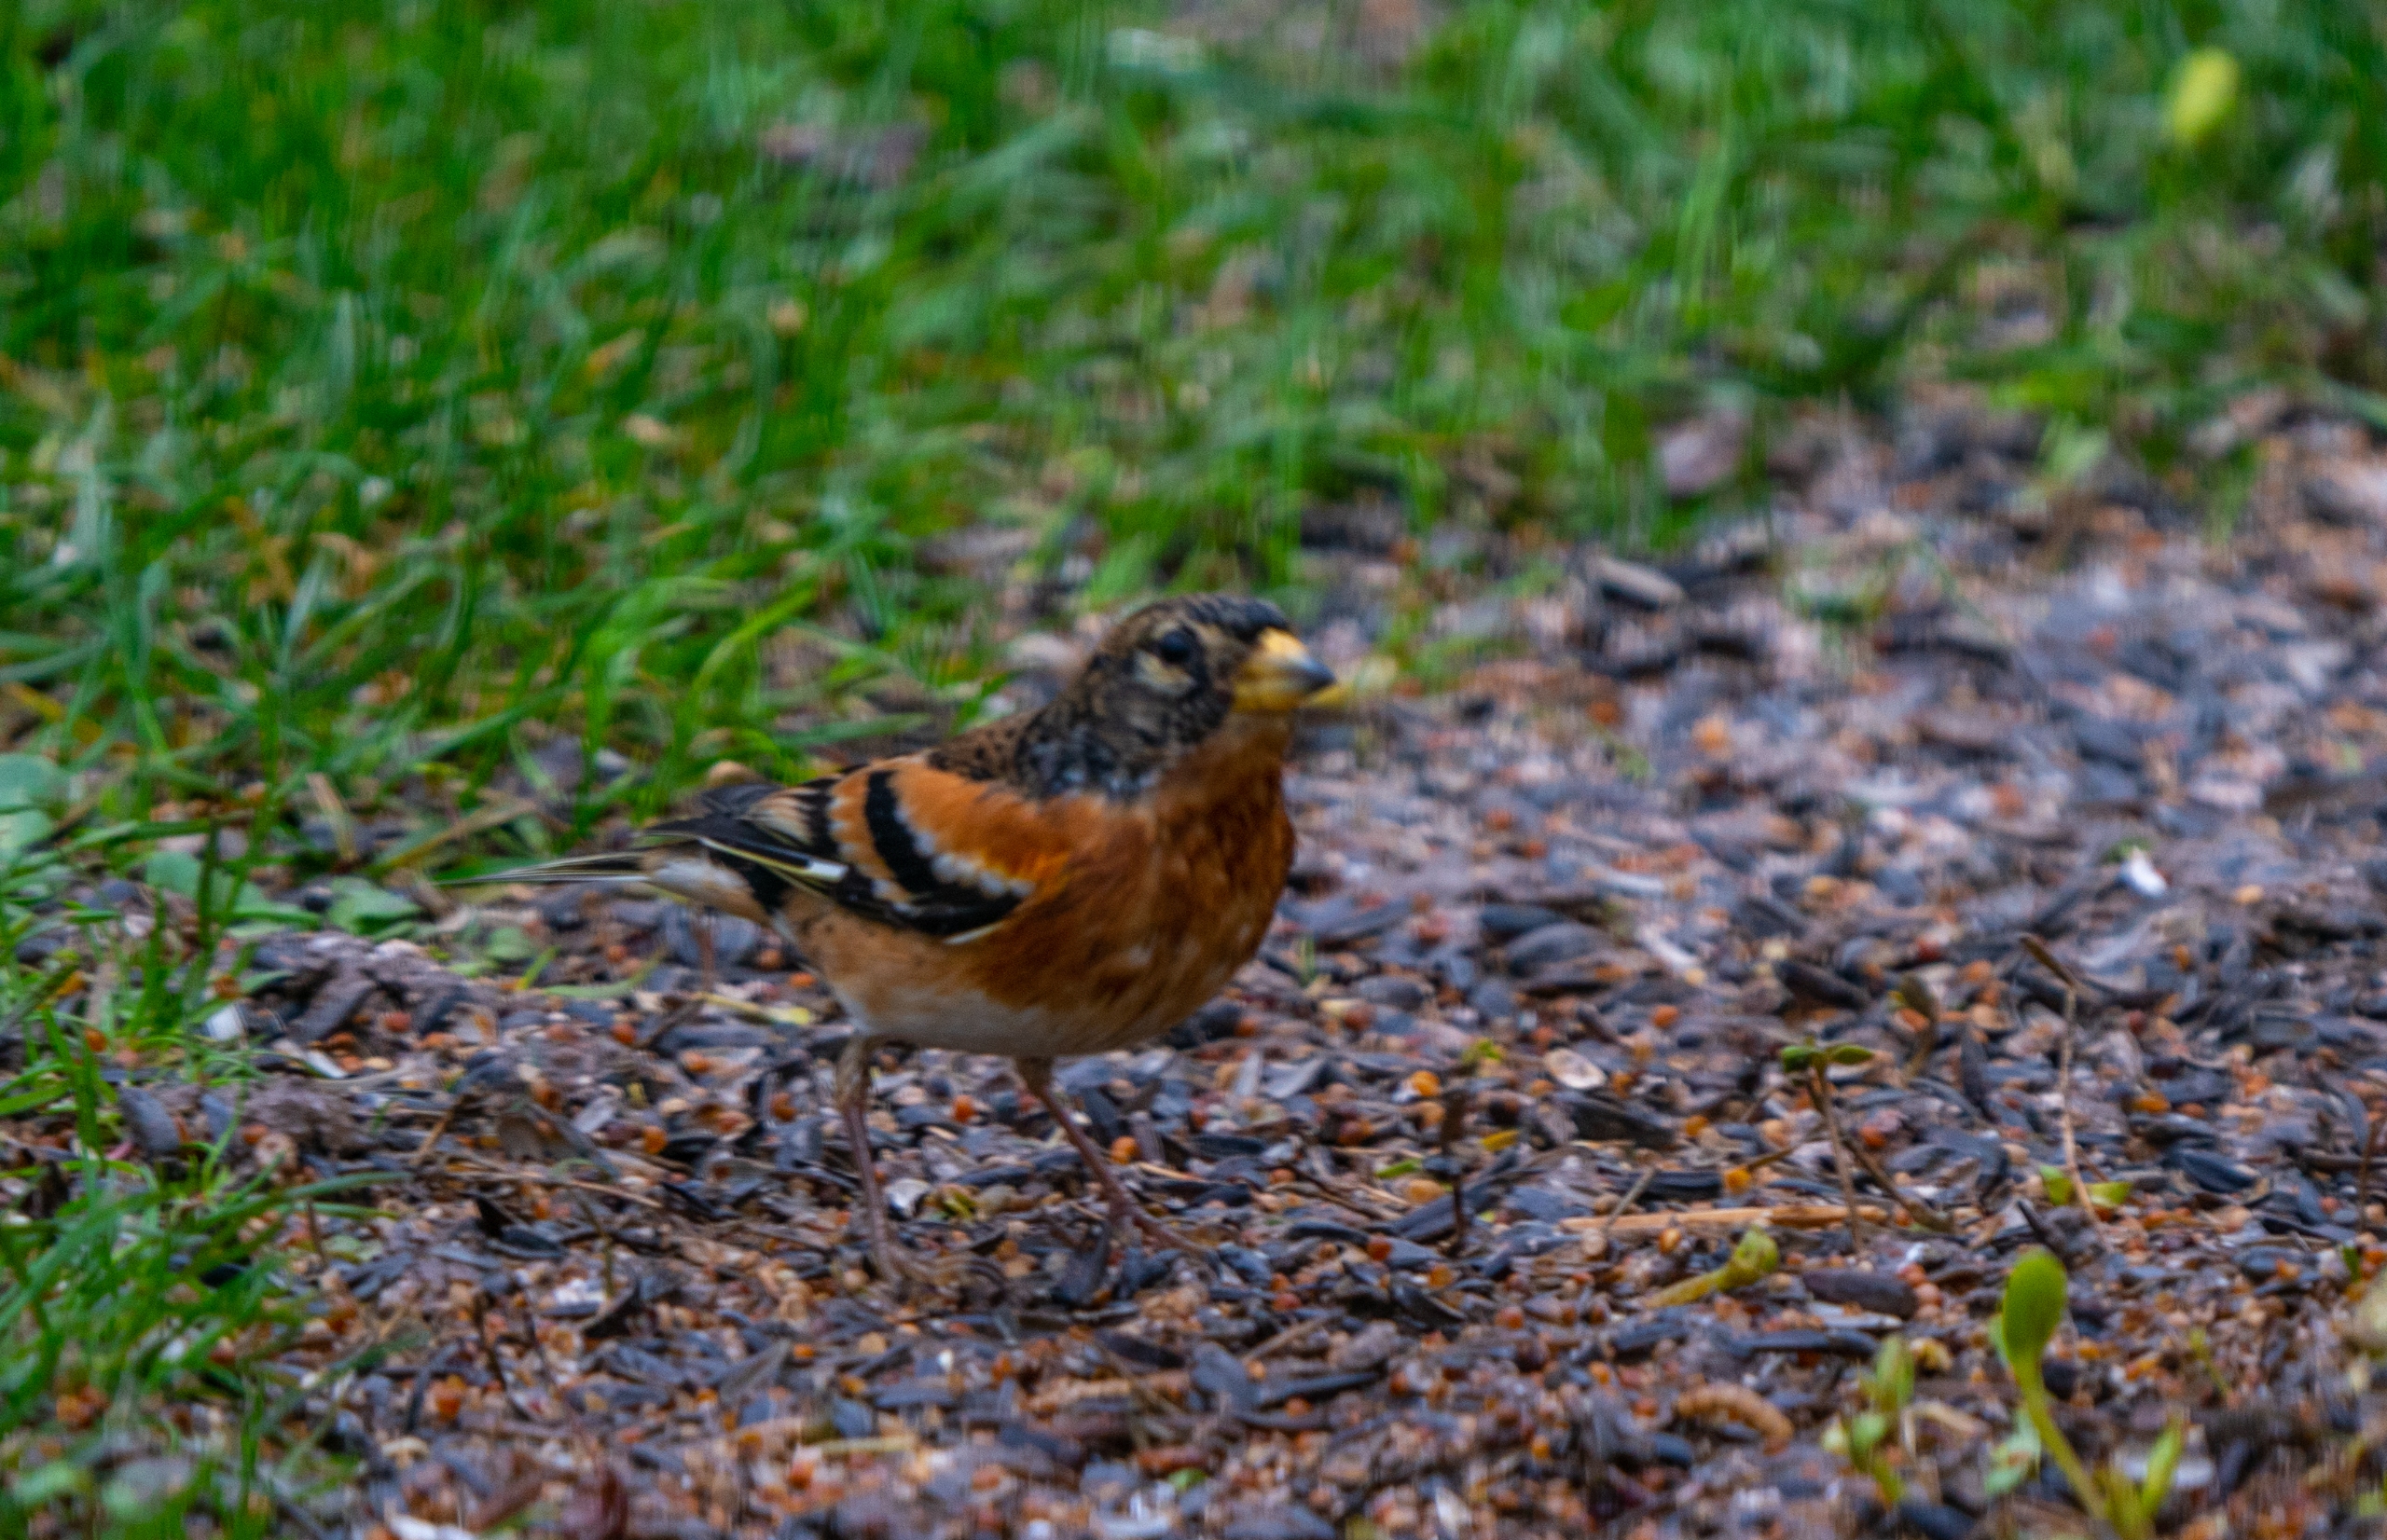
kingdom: Animalia
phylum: Chordata
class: Aves
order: Passeriformes
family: Fringillidae
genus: Fringilla
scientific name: Fringilla montifringilla
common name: Kvækerfinke
